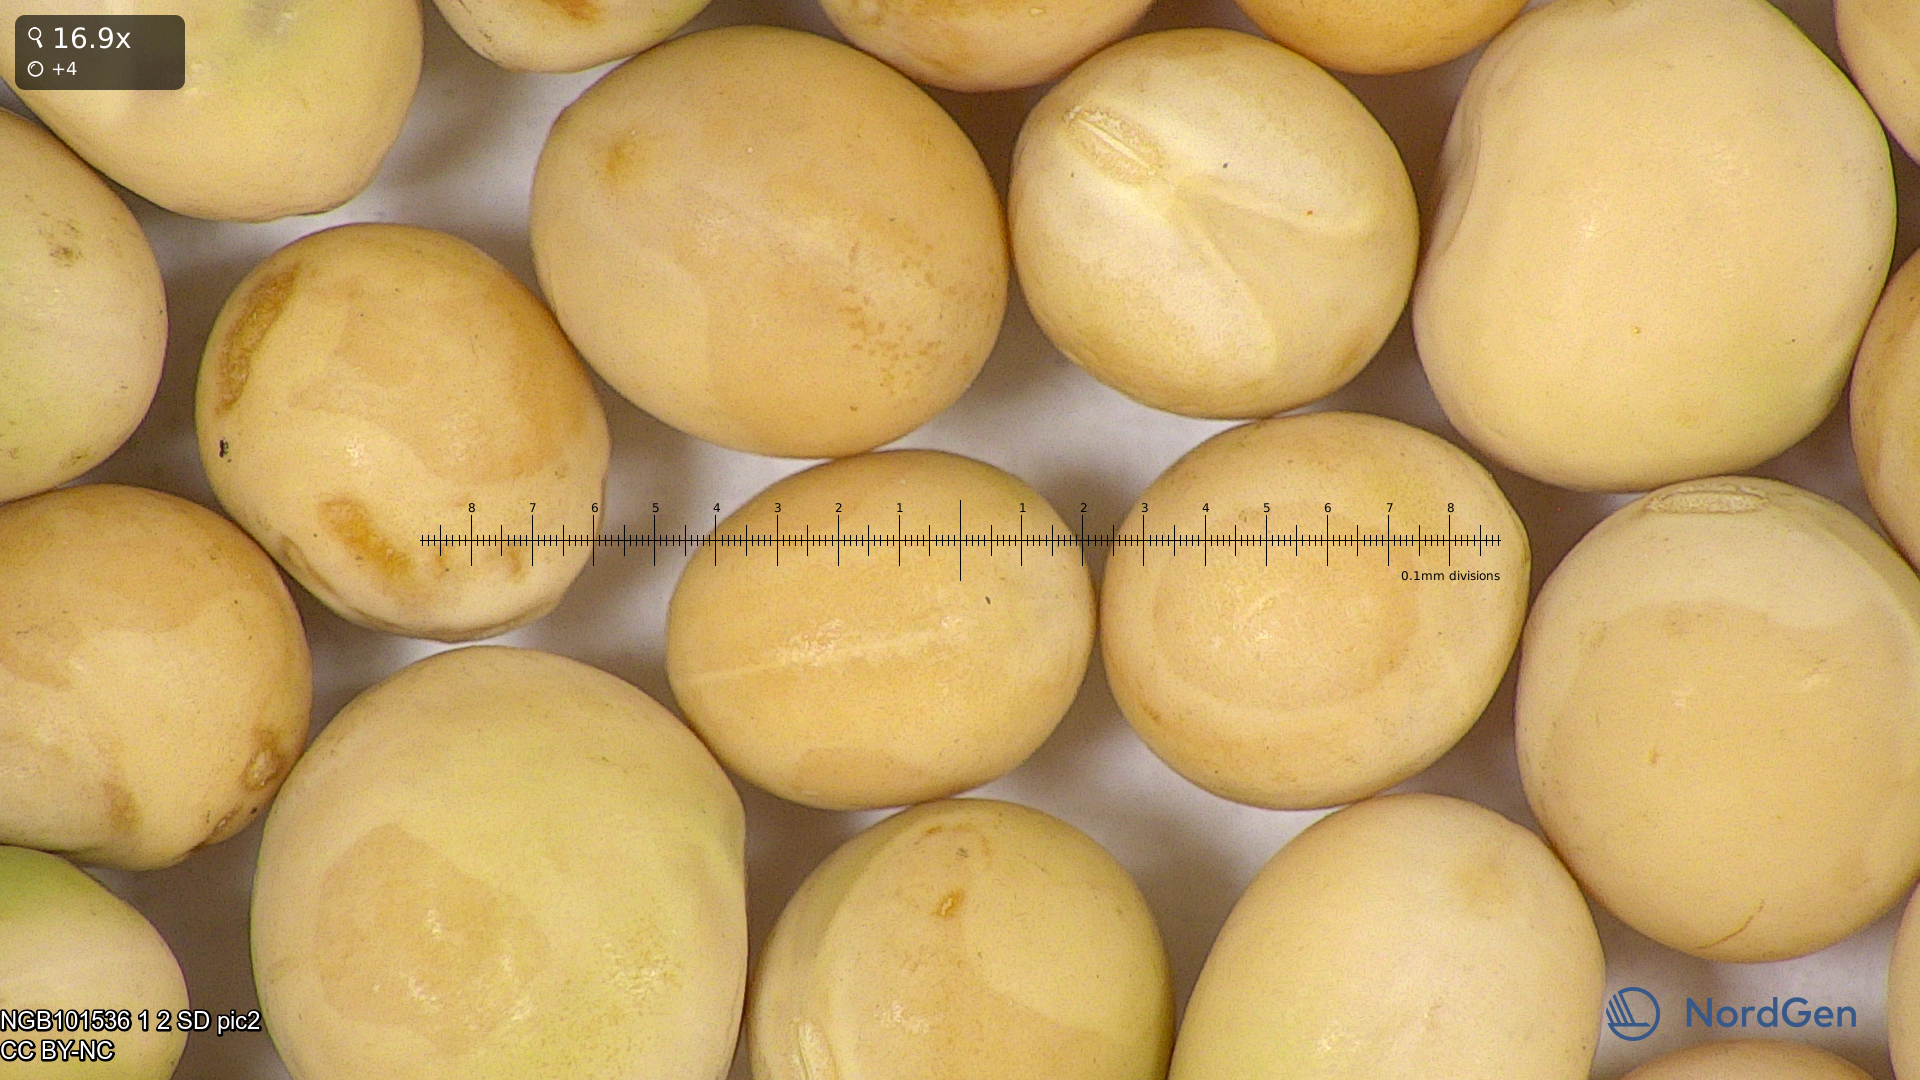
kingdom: Plantae
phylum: Tracheophyta
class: Magnoliopsida
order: Fabales
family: Fabaceae
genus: Lathyrus
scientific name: Lathyrus oleraceus
